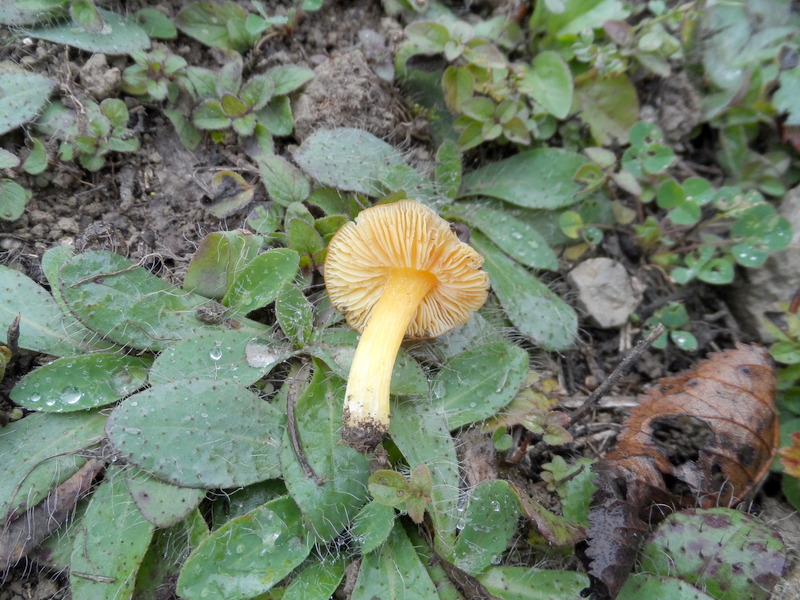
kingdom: Fungi
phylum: Basidiomycota
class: Agaricomycetes
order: Agaricales
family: Hygrophoraceae
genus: Hygrocybe
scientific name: Hygrocybe acutoconica
